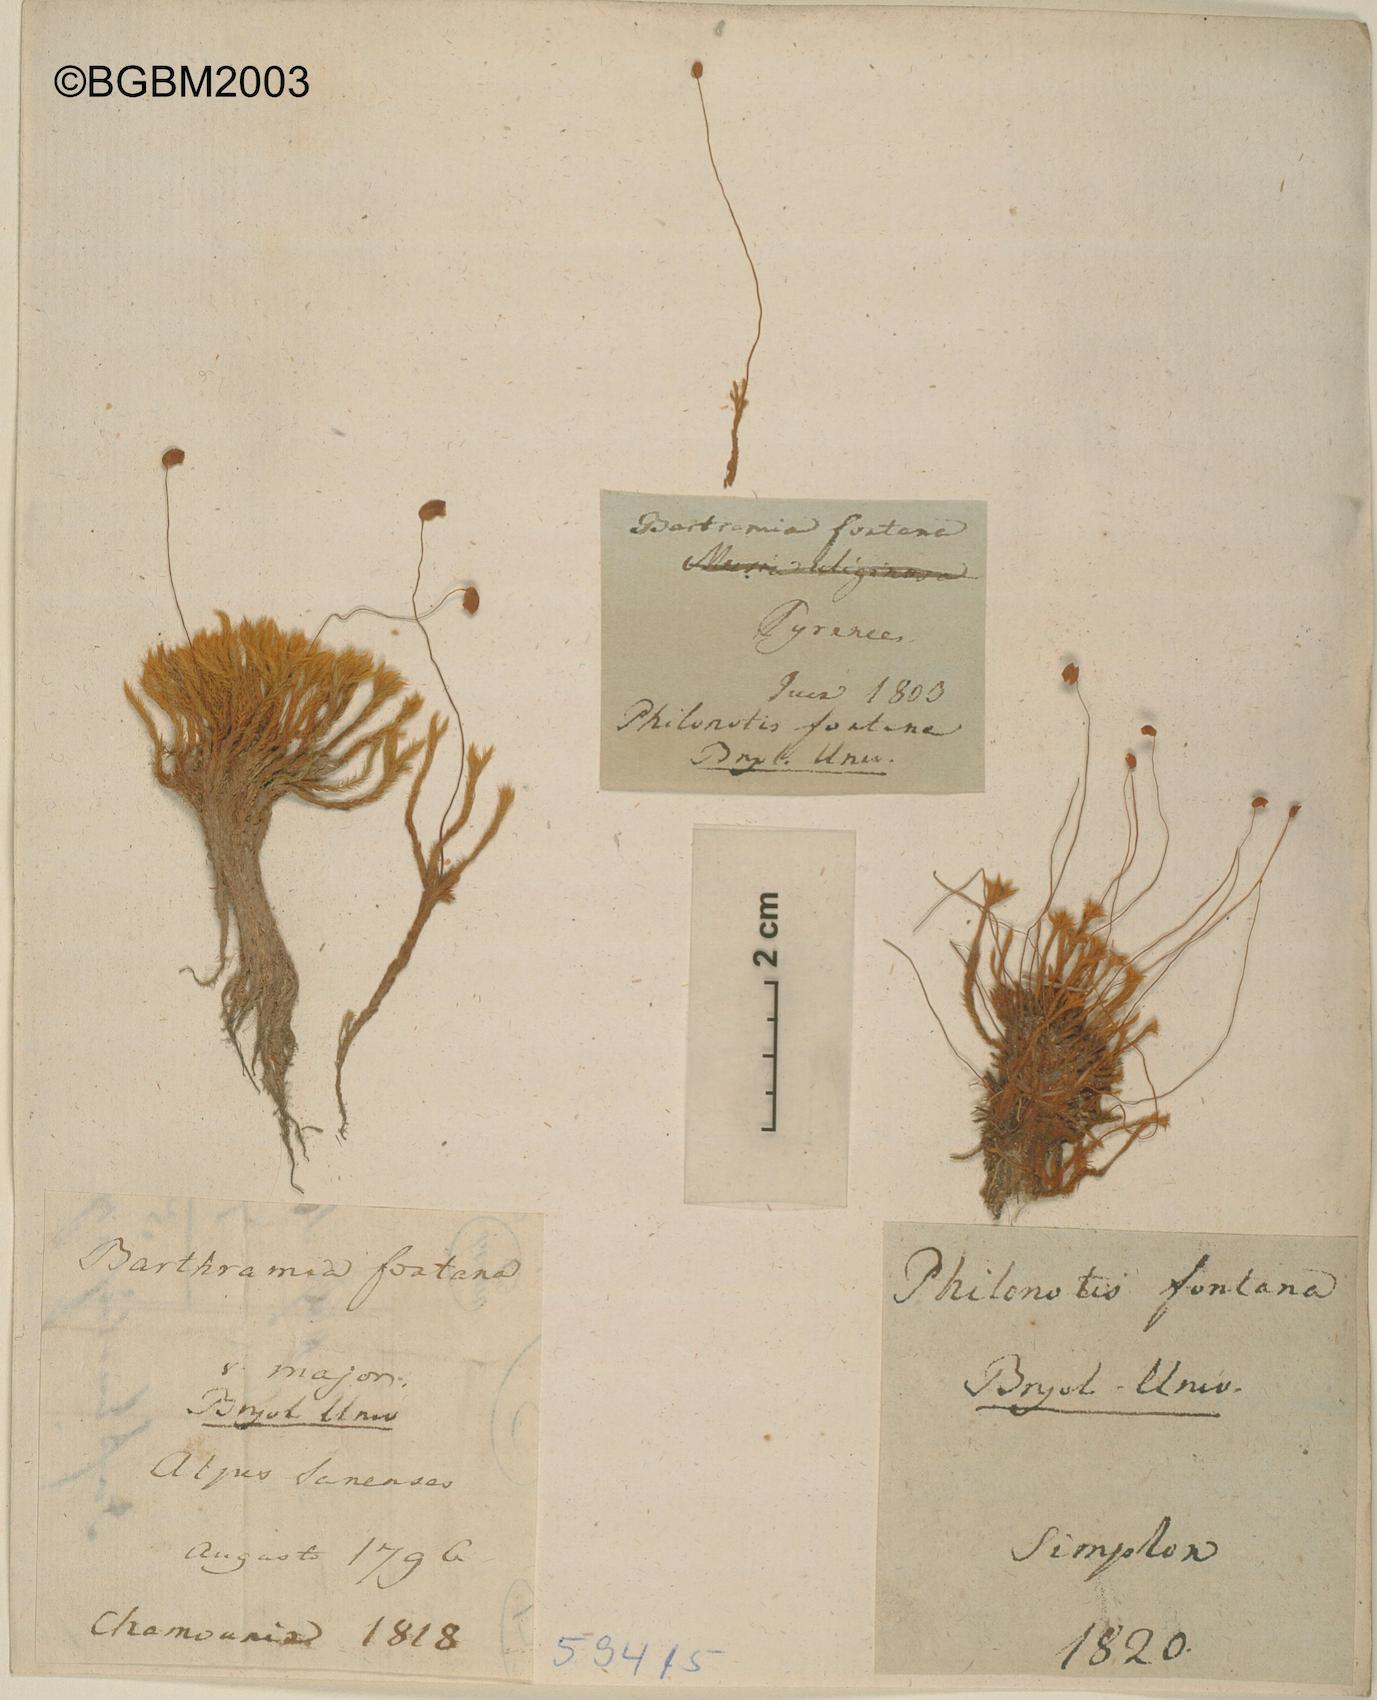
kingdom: Plantae
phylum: Bryophyta
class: Bryopsida
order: Bartramiales
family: Bartramiaceae
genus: Philonotis
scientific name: Philonotis fontana
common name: Fountain apple-moss
